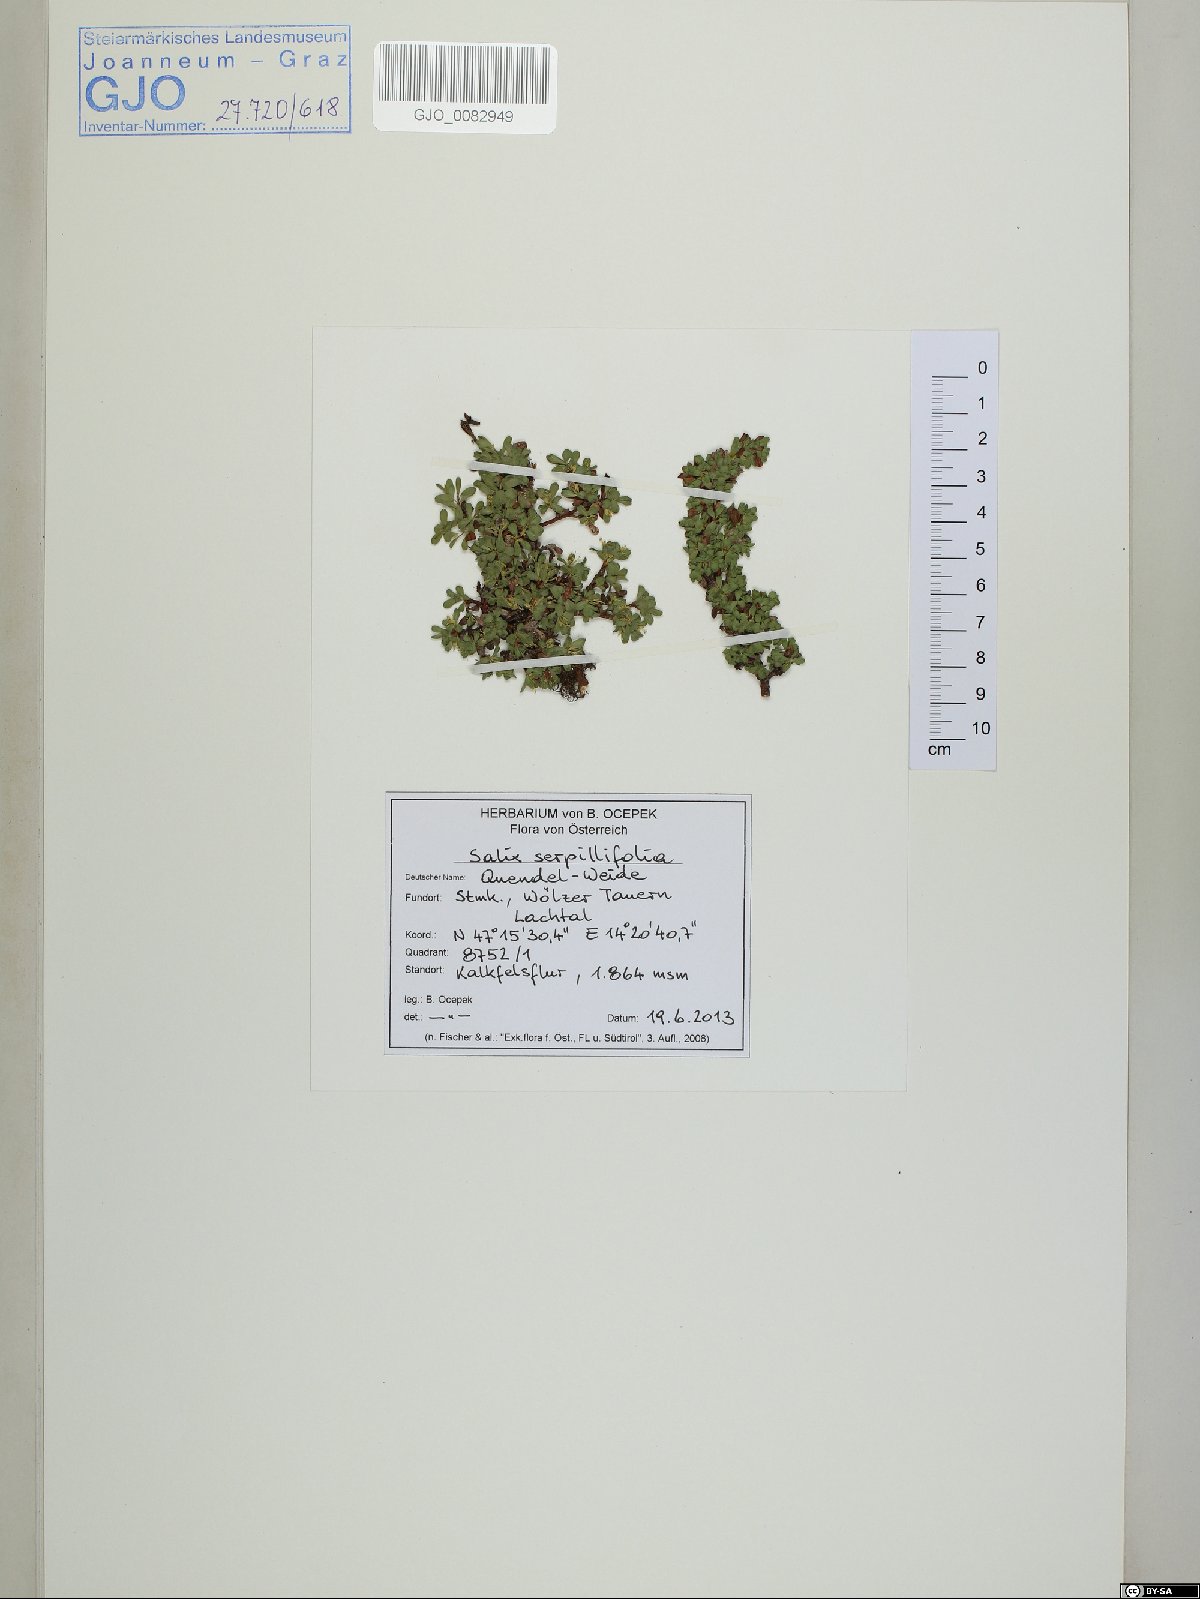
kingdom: Plantae
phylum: Tracheophyta
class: Magnoliopsida
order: Malpighiales
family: Salicaceae
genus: Salix
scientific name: Salix serpillifolia
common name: Thyme-leaf willow
